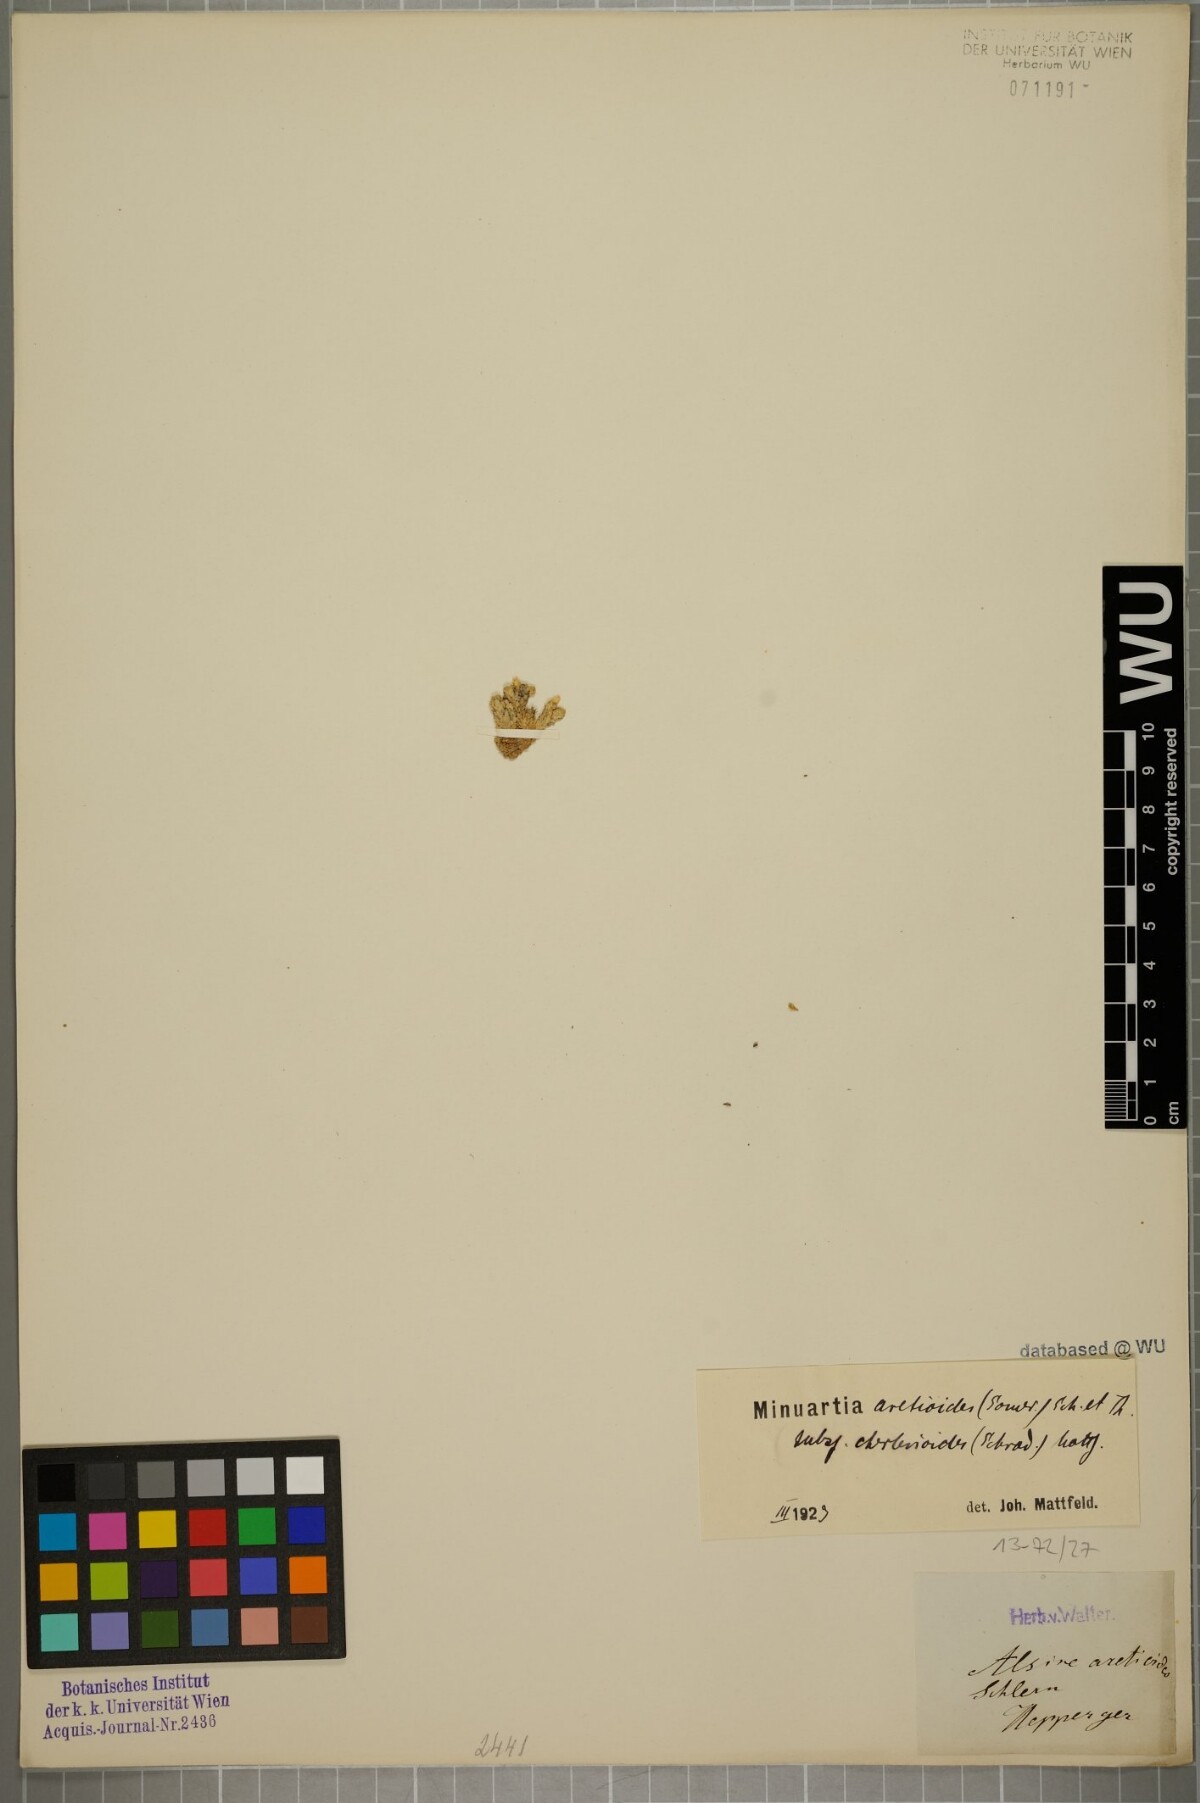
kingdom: Plantae
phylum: Tracheophyta
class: Magnoliopsida
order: Caryophyllales
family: Caryophyllaceae
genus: Facchinia
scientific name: Facchinia cherlerioides
